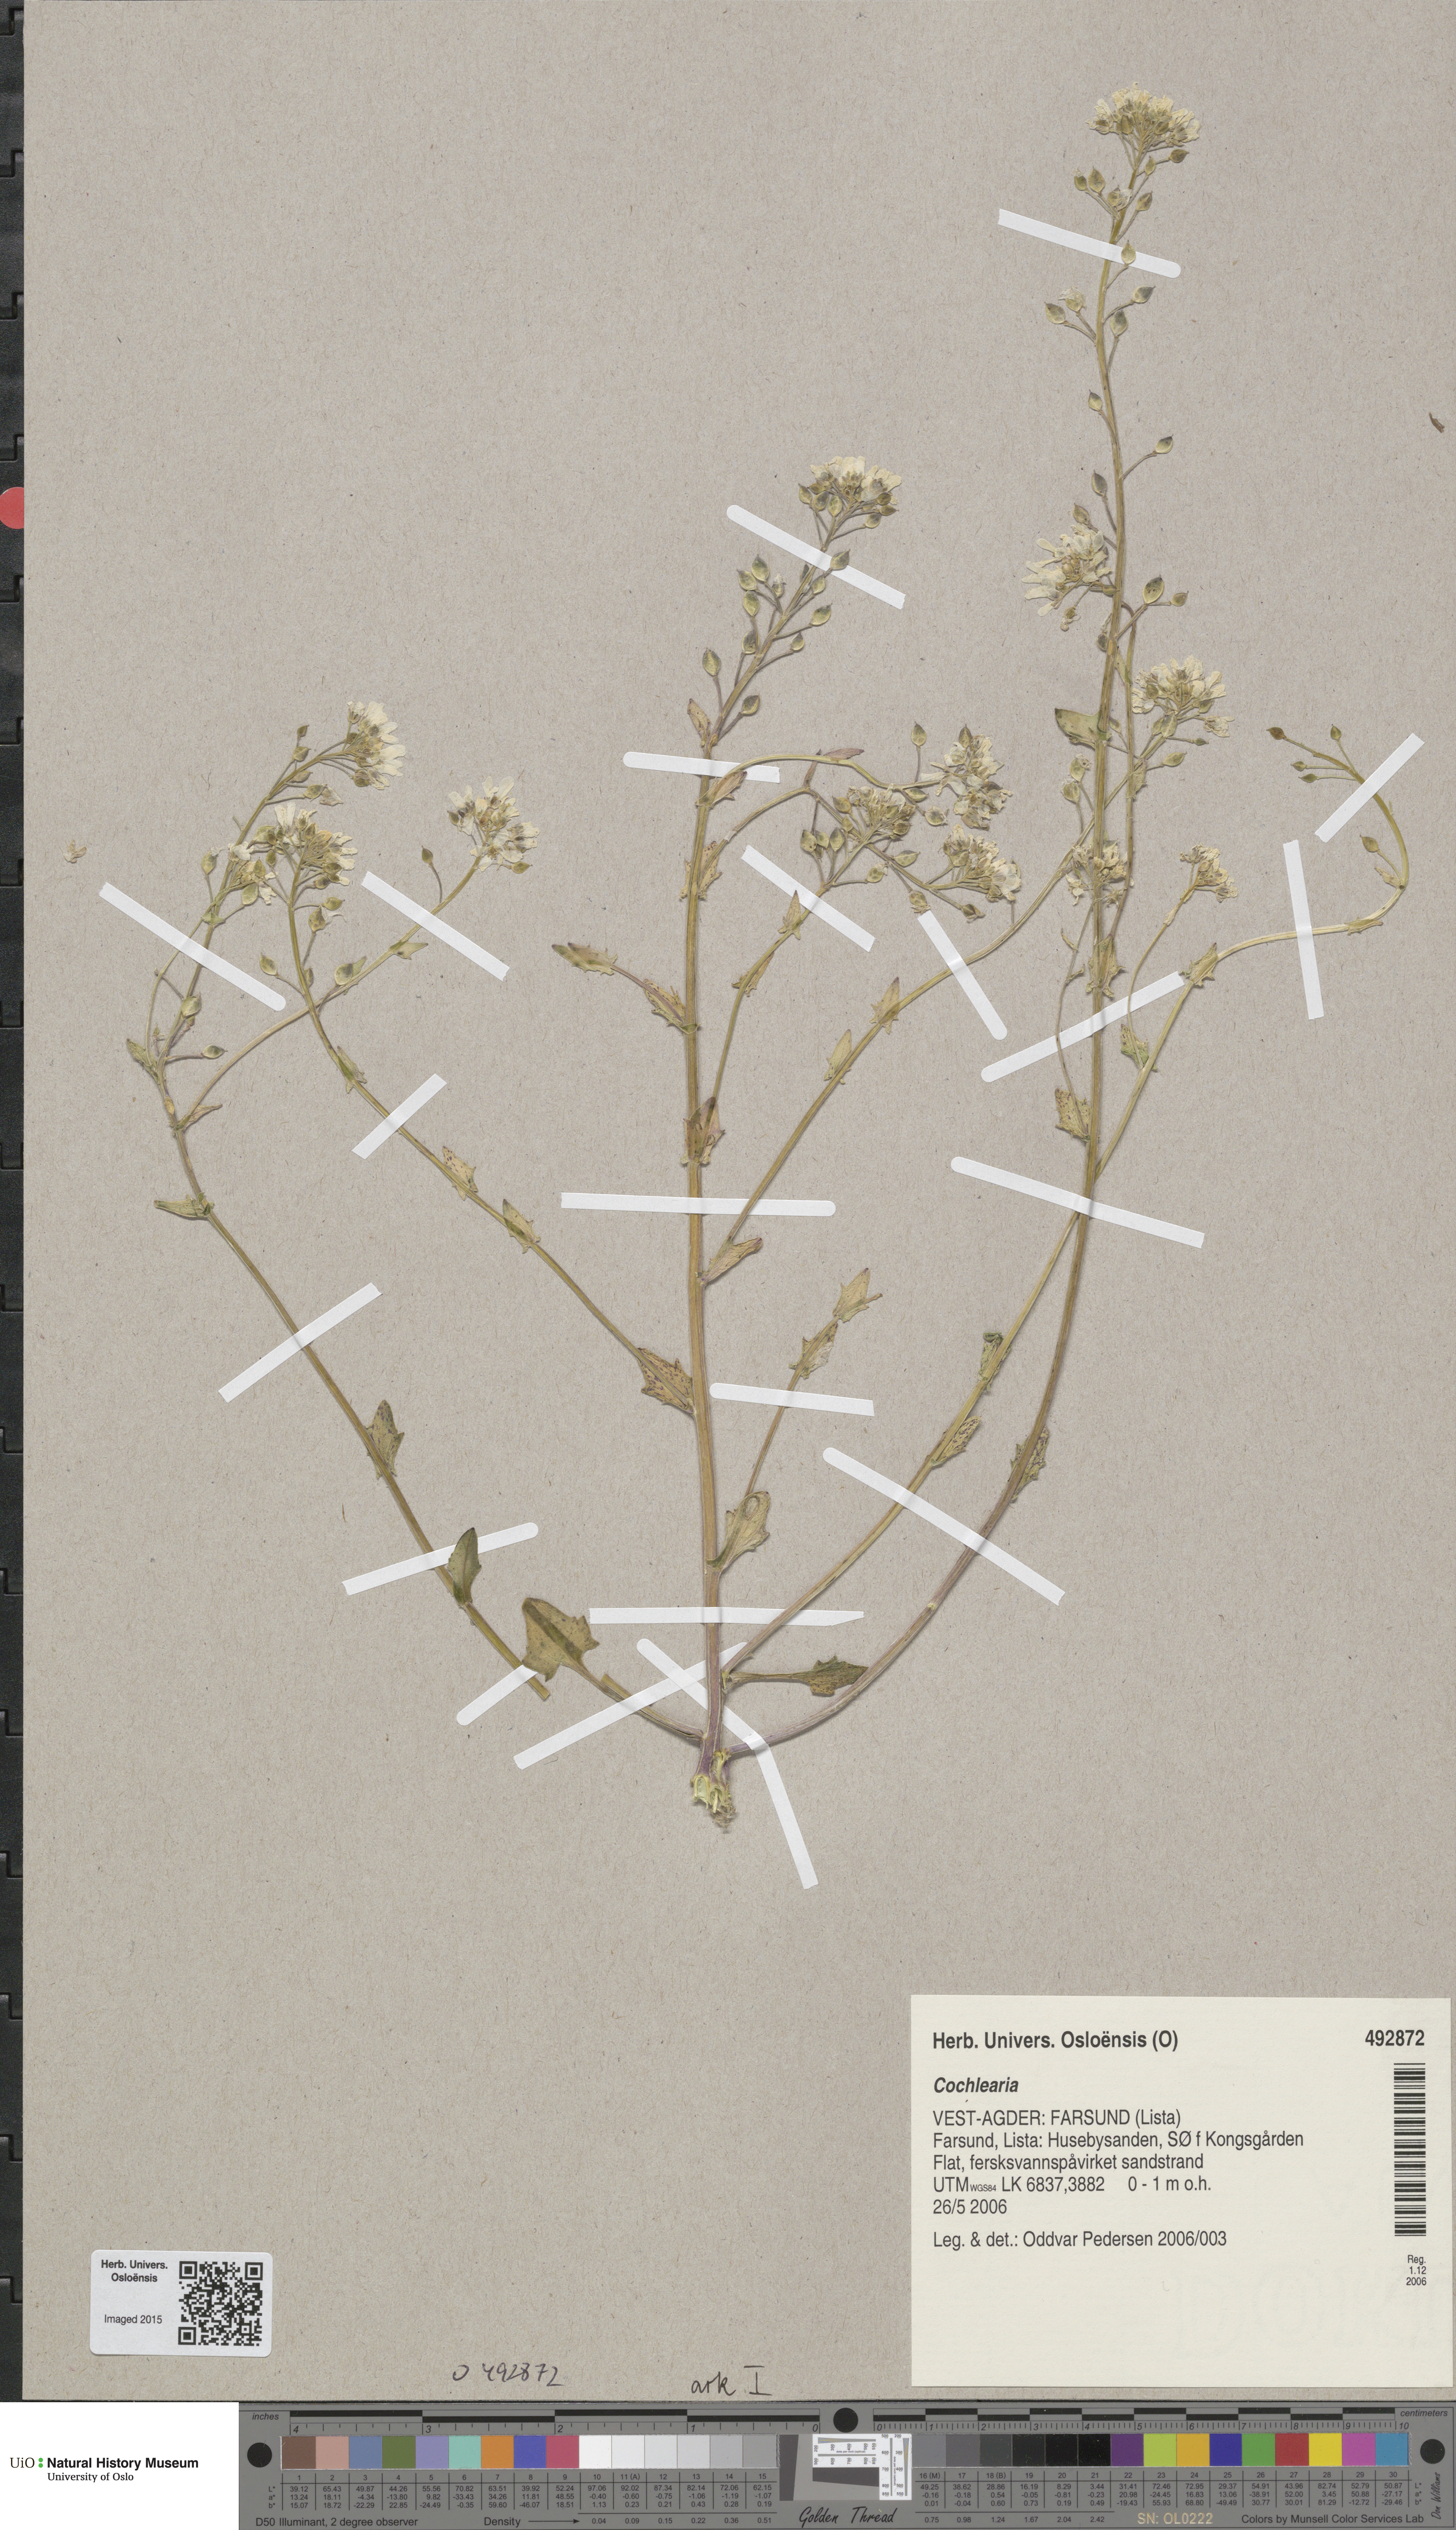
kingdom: Plantae
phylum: Tracheophyta
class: Magnoliopsida
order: Brassicales
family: Brassicaceae
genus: Cochlearia
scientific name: Cochlearia
